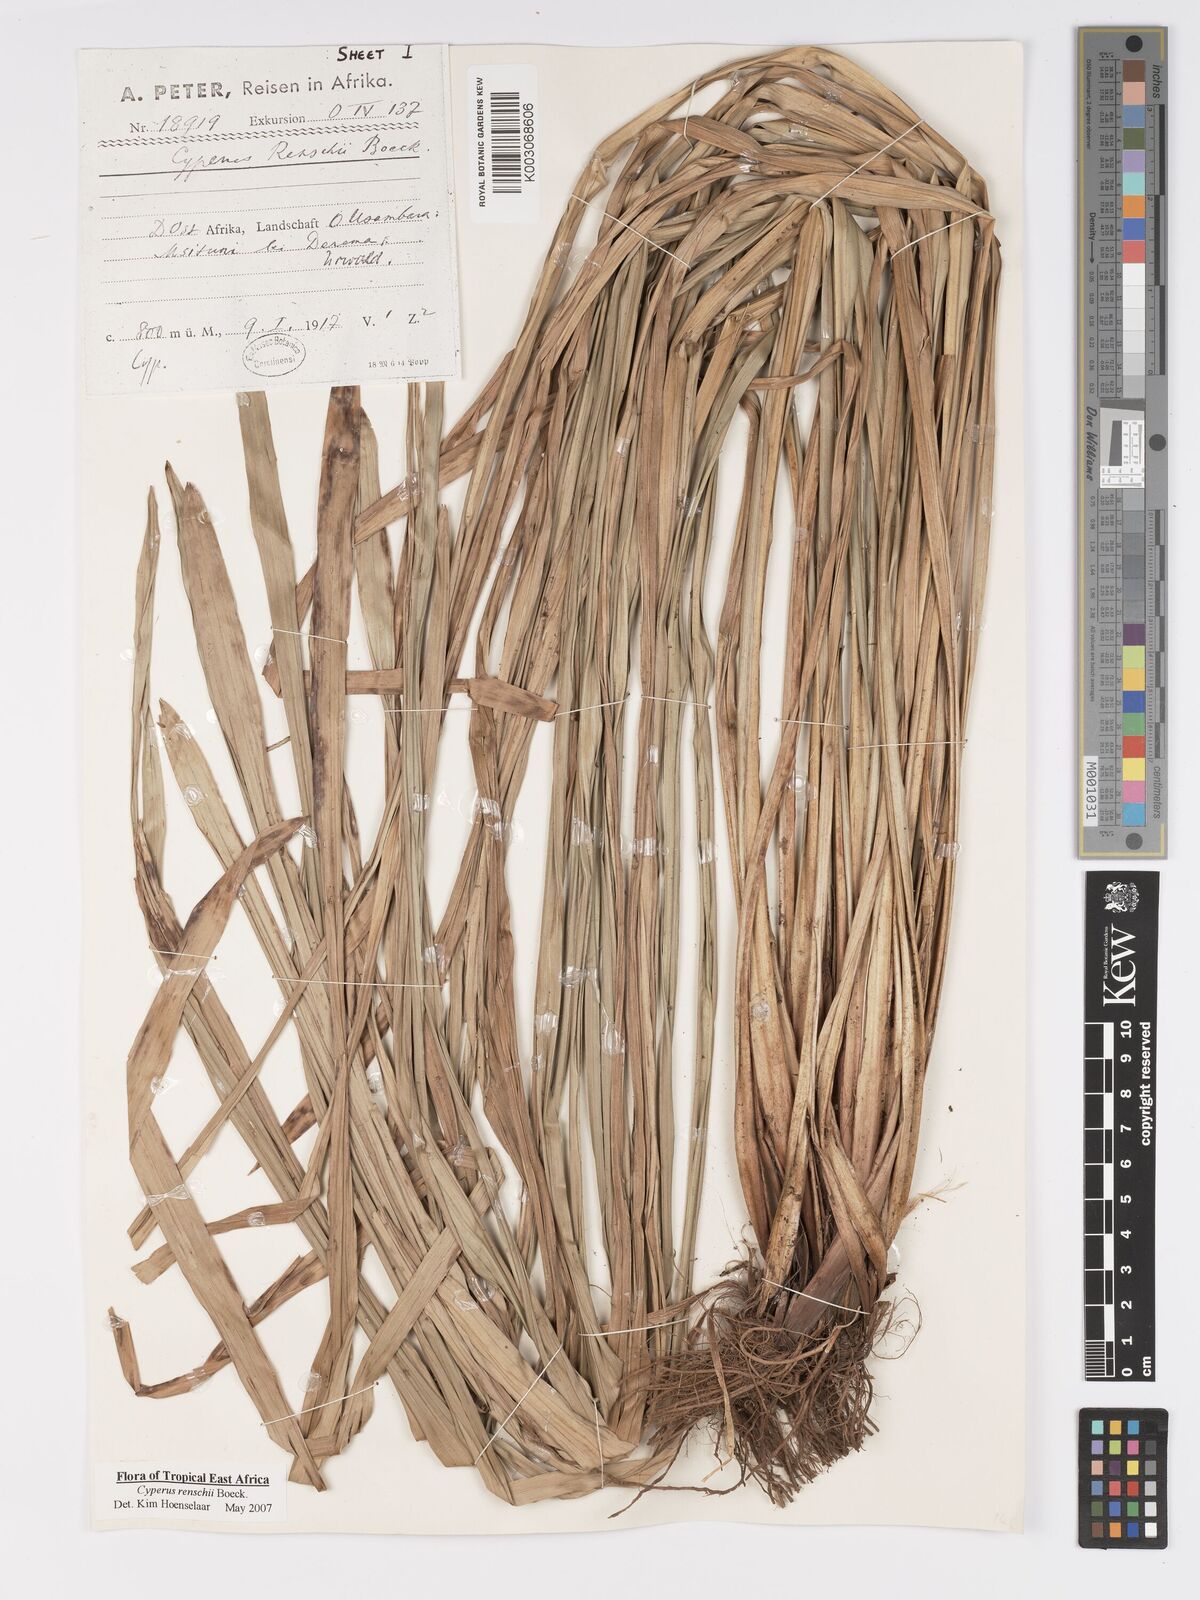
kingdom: Plantae
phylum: Tracheophyta
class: Liliopsida
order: Poales
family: Cyperaceae
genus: Cyperus
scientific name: Cyperus renschii
